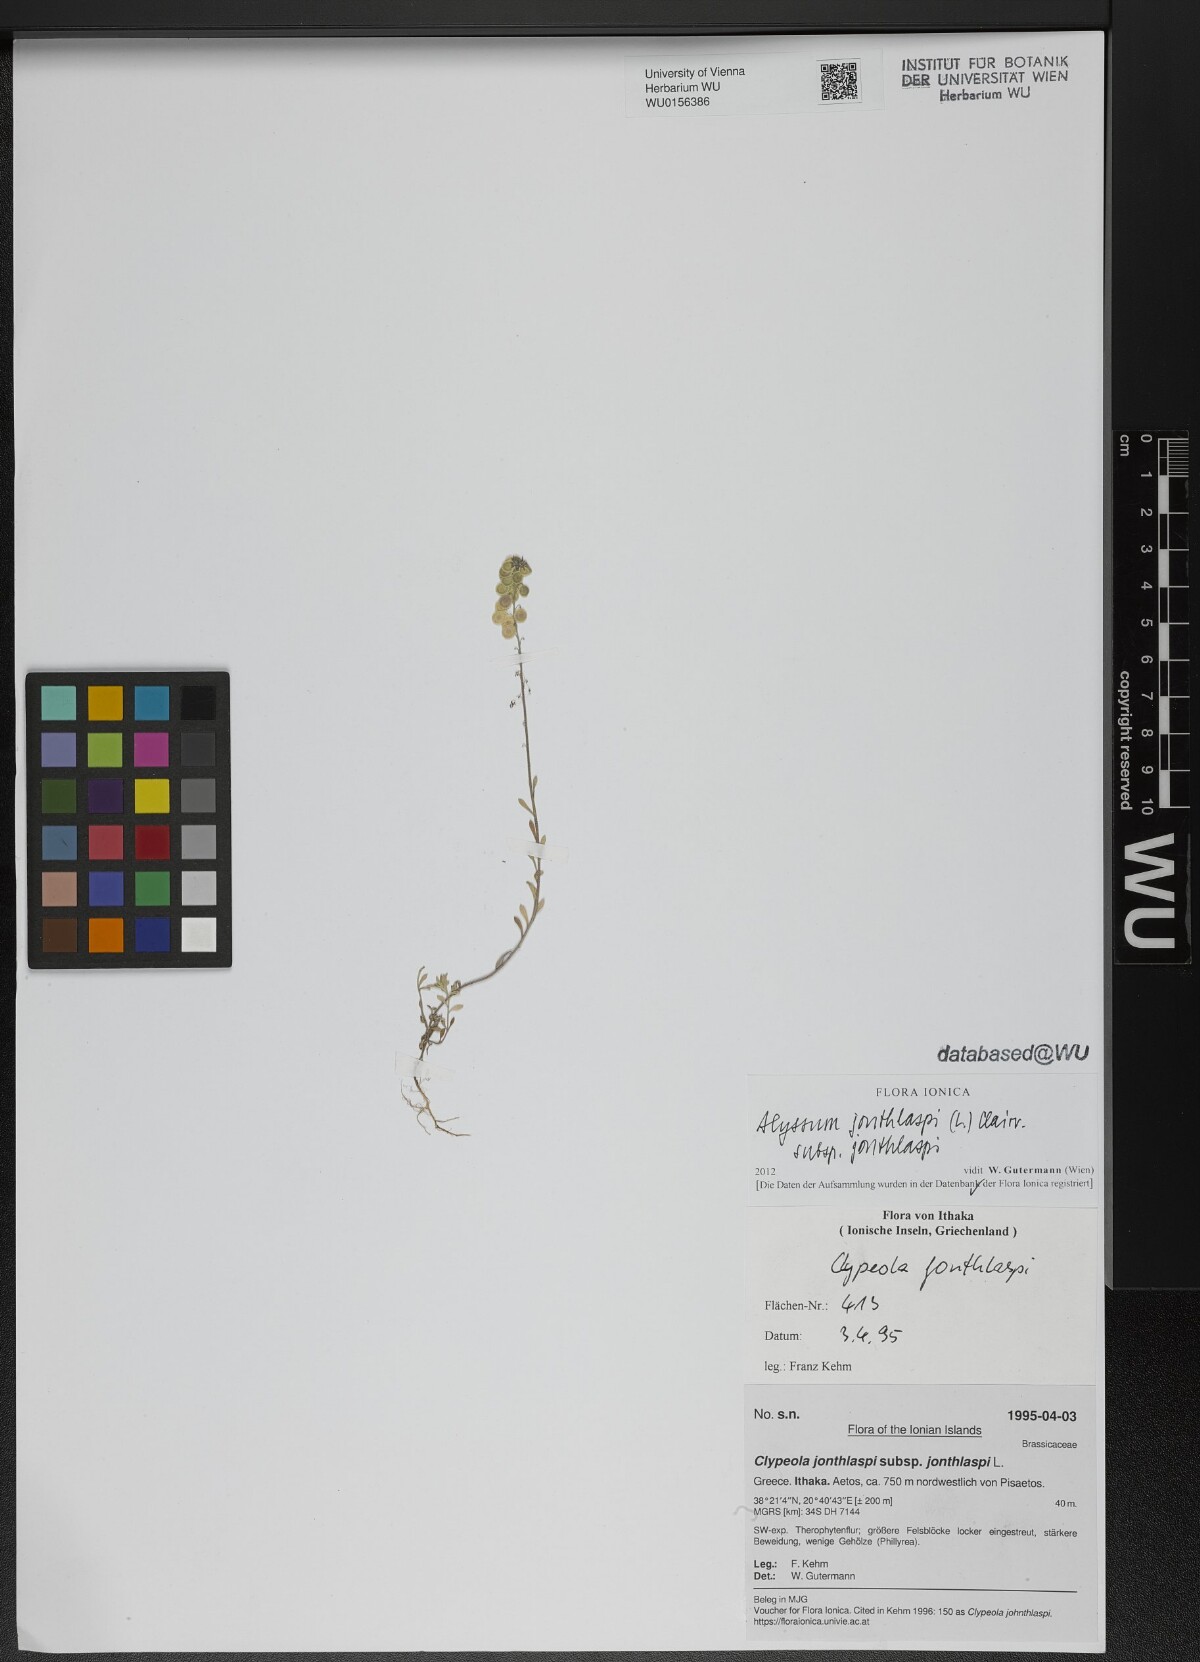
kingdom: Plantae
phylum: Tracheophyta
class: Magnoliopsida
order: Brassicales
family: Brassicaceae
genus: Clypeola
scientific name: Clypeola jonthlaspi
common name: Disk cress
